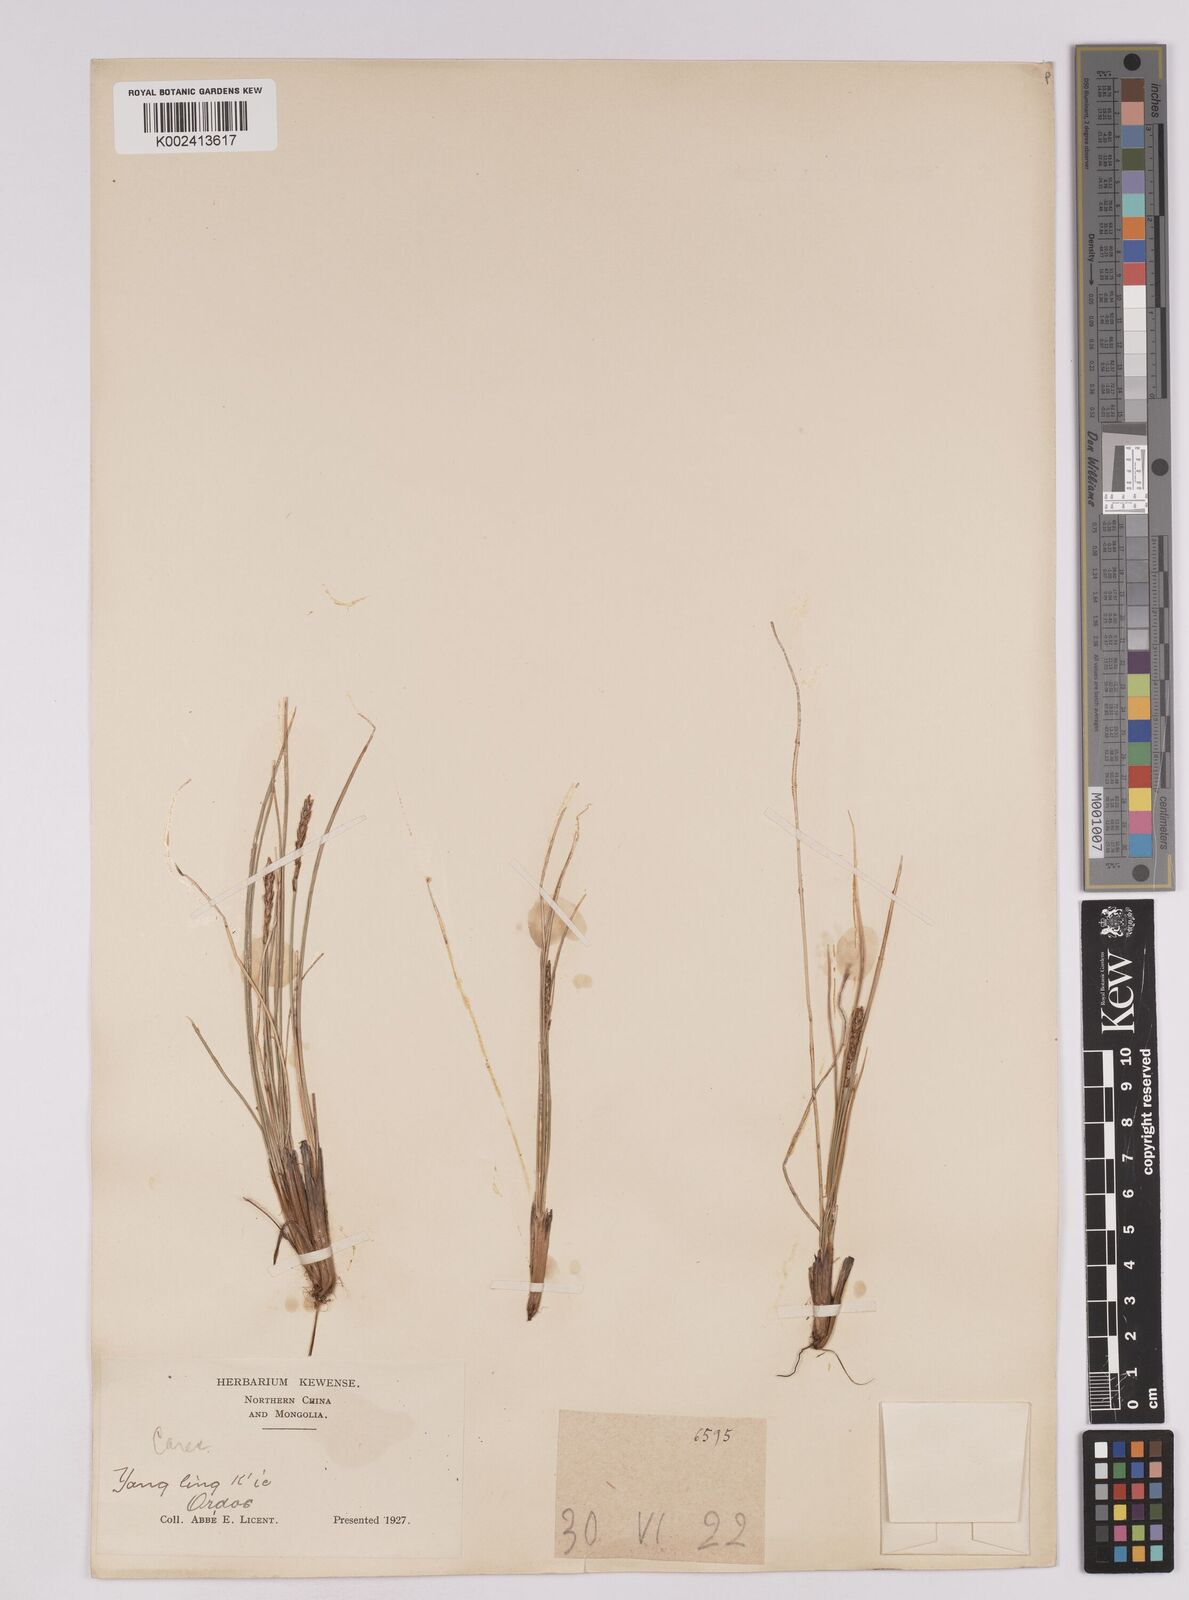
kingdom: Plantae
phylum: Tracheophyta
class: Liliopsida
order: Poales
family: Cyperaceae
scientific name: Cyperaceae
